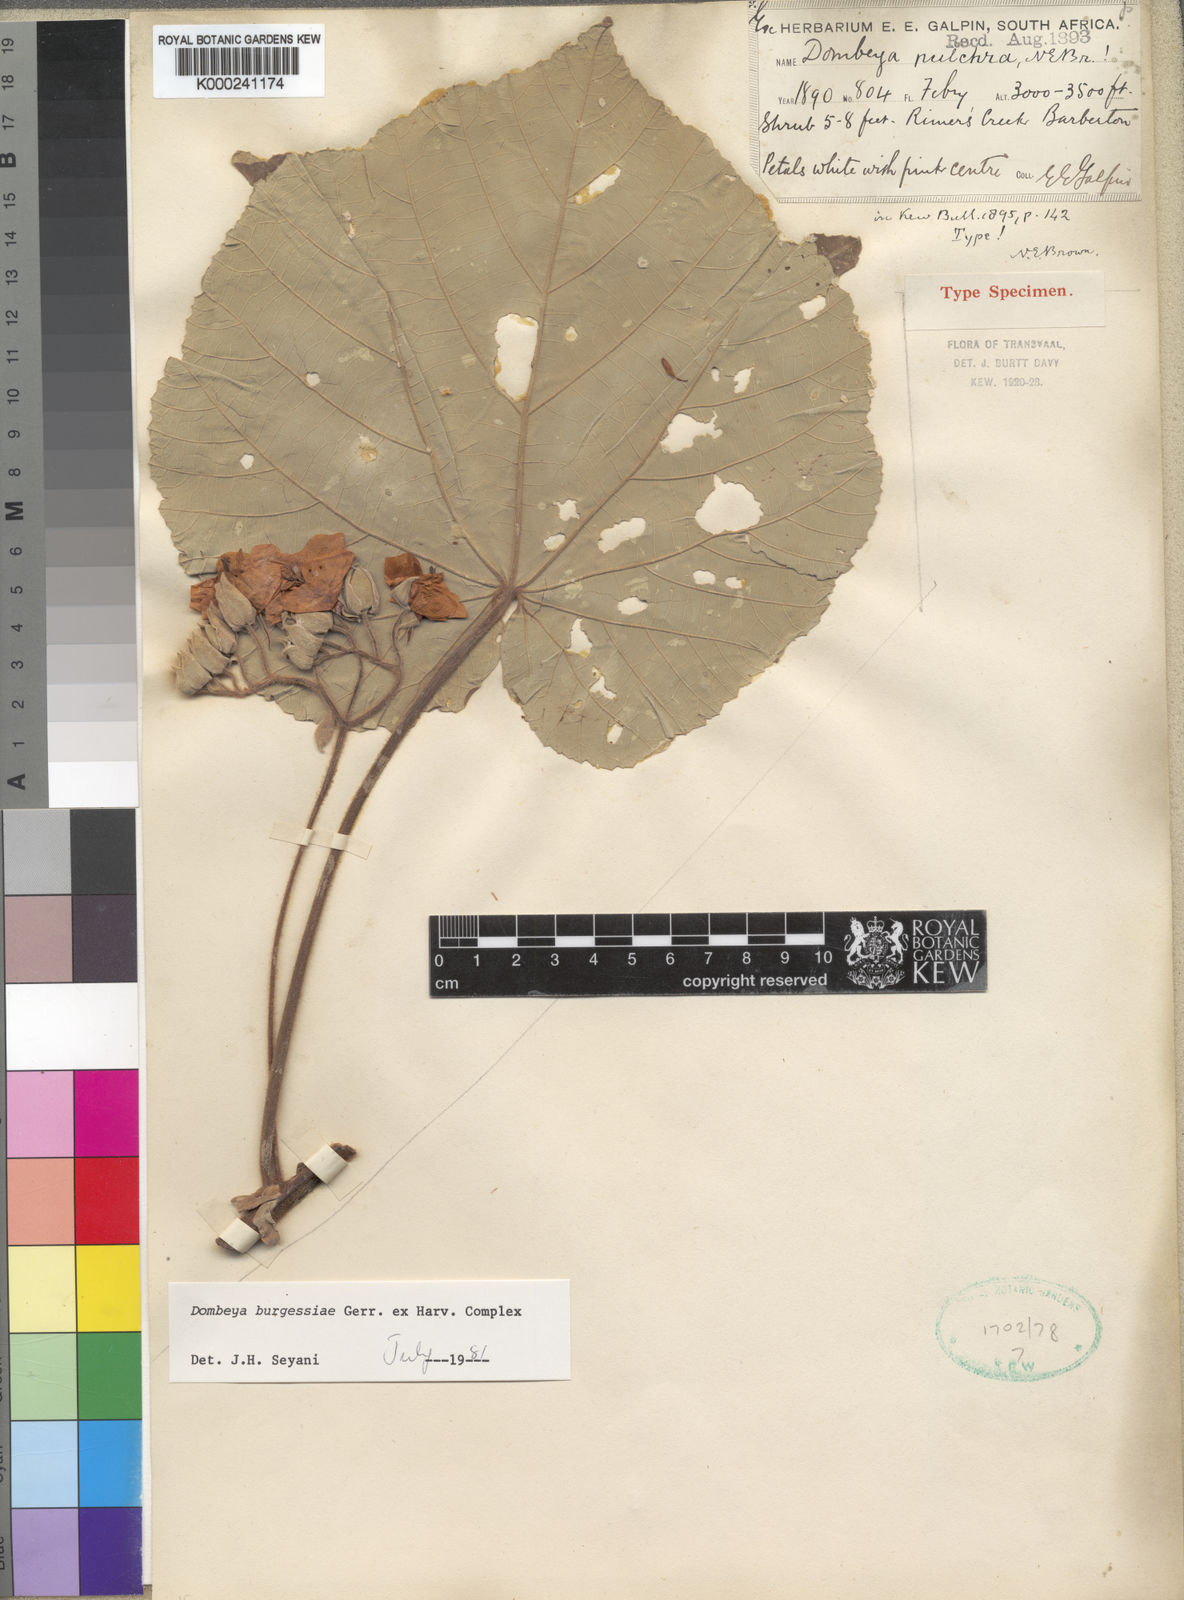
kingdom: Plantae
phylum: Tracheophyta
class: Magnoliopsida
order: Malvales
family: Malvaceae
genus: Dombeya
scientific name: Dombeya burgessiae
